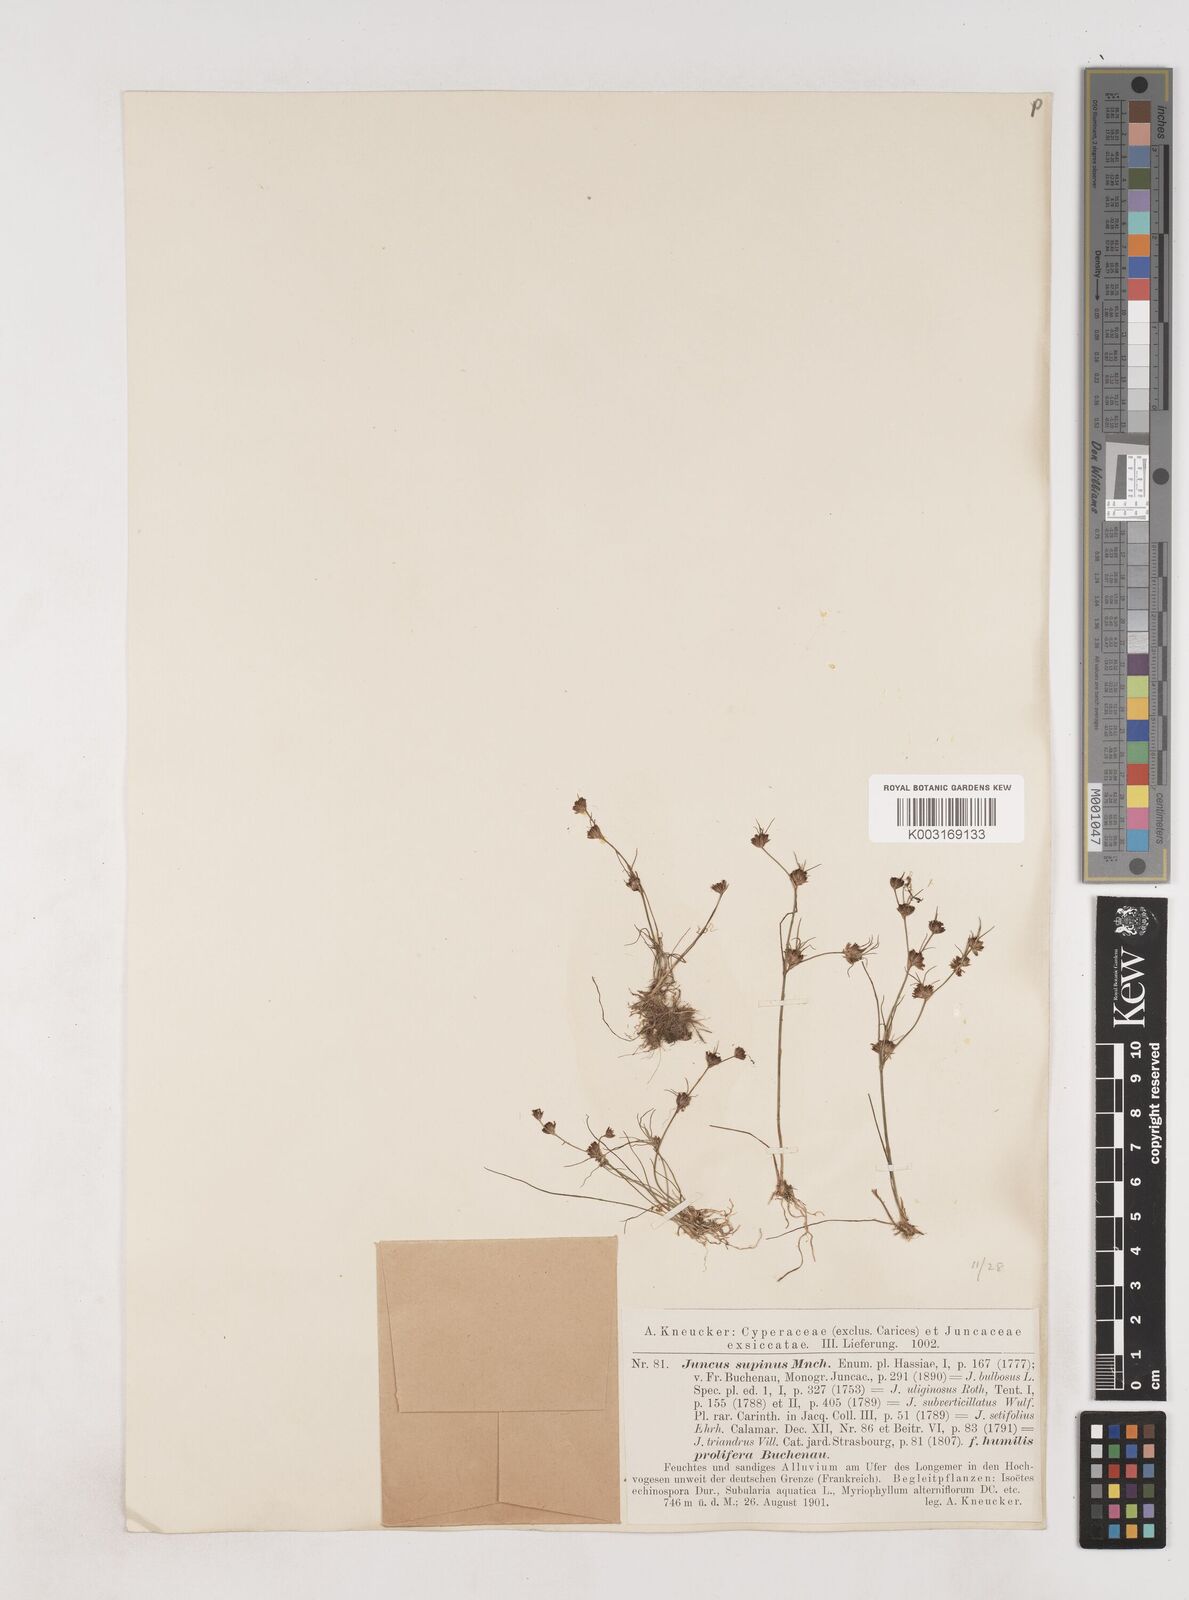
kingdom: Plantae
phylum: Tracheophyta
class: Liliopsida
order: Poales
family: Juncaceae
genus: Juncus
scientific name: Juncus bulbosus
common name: Bulbous rush
